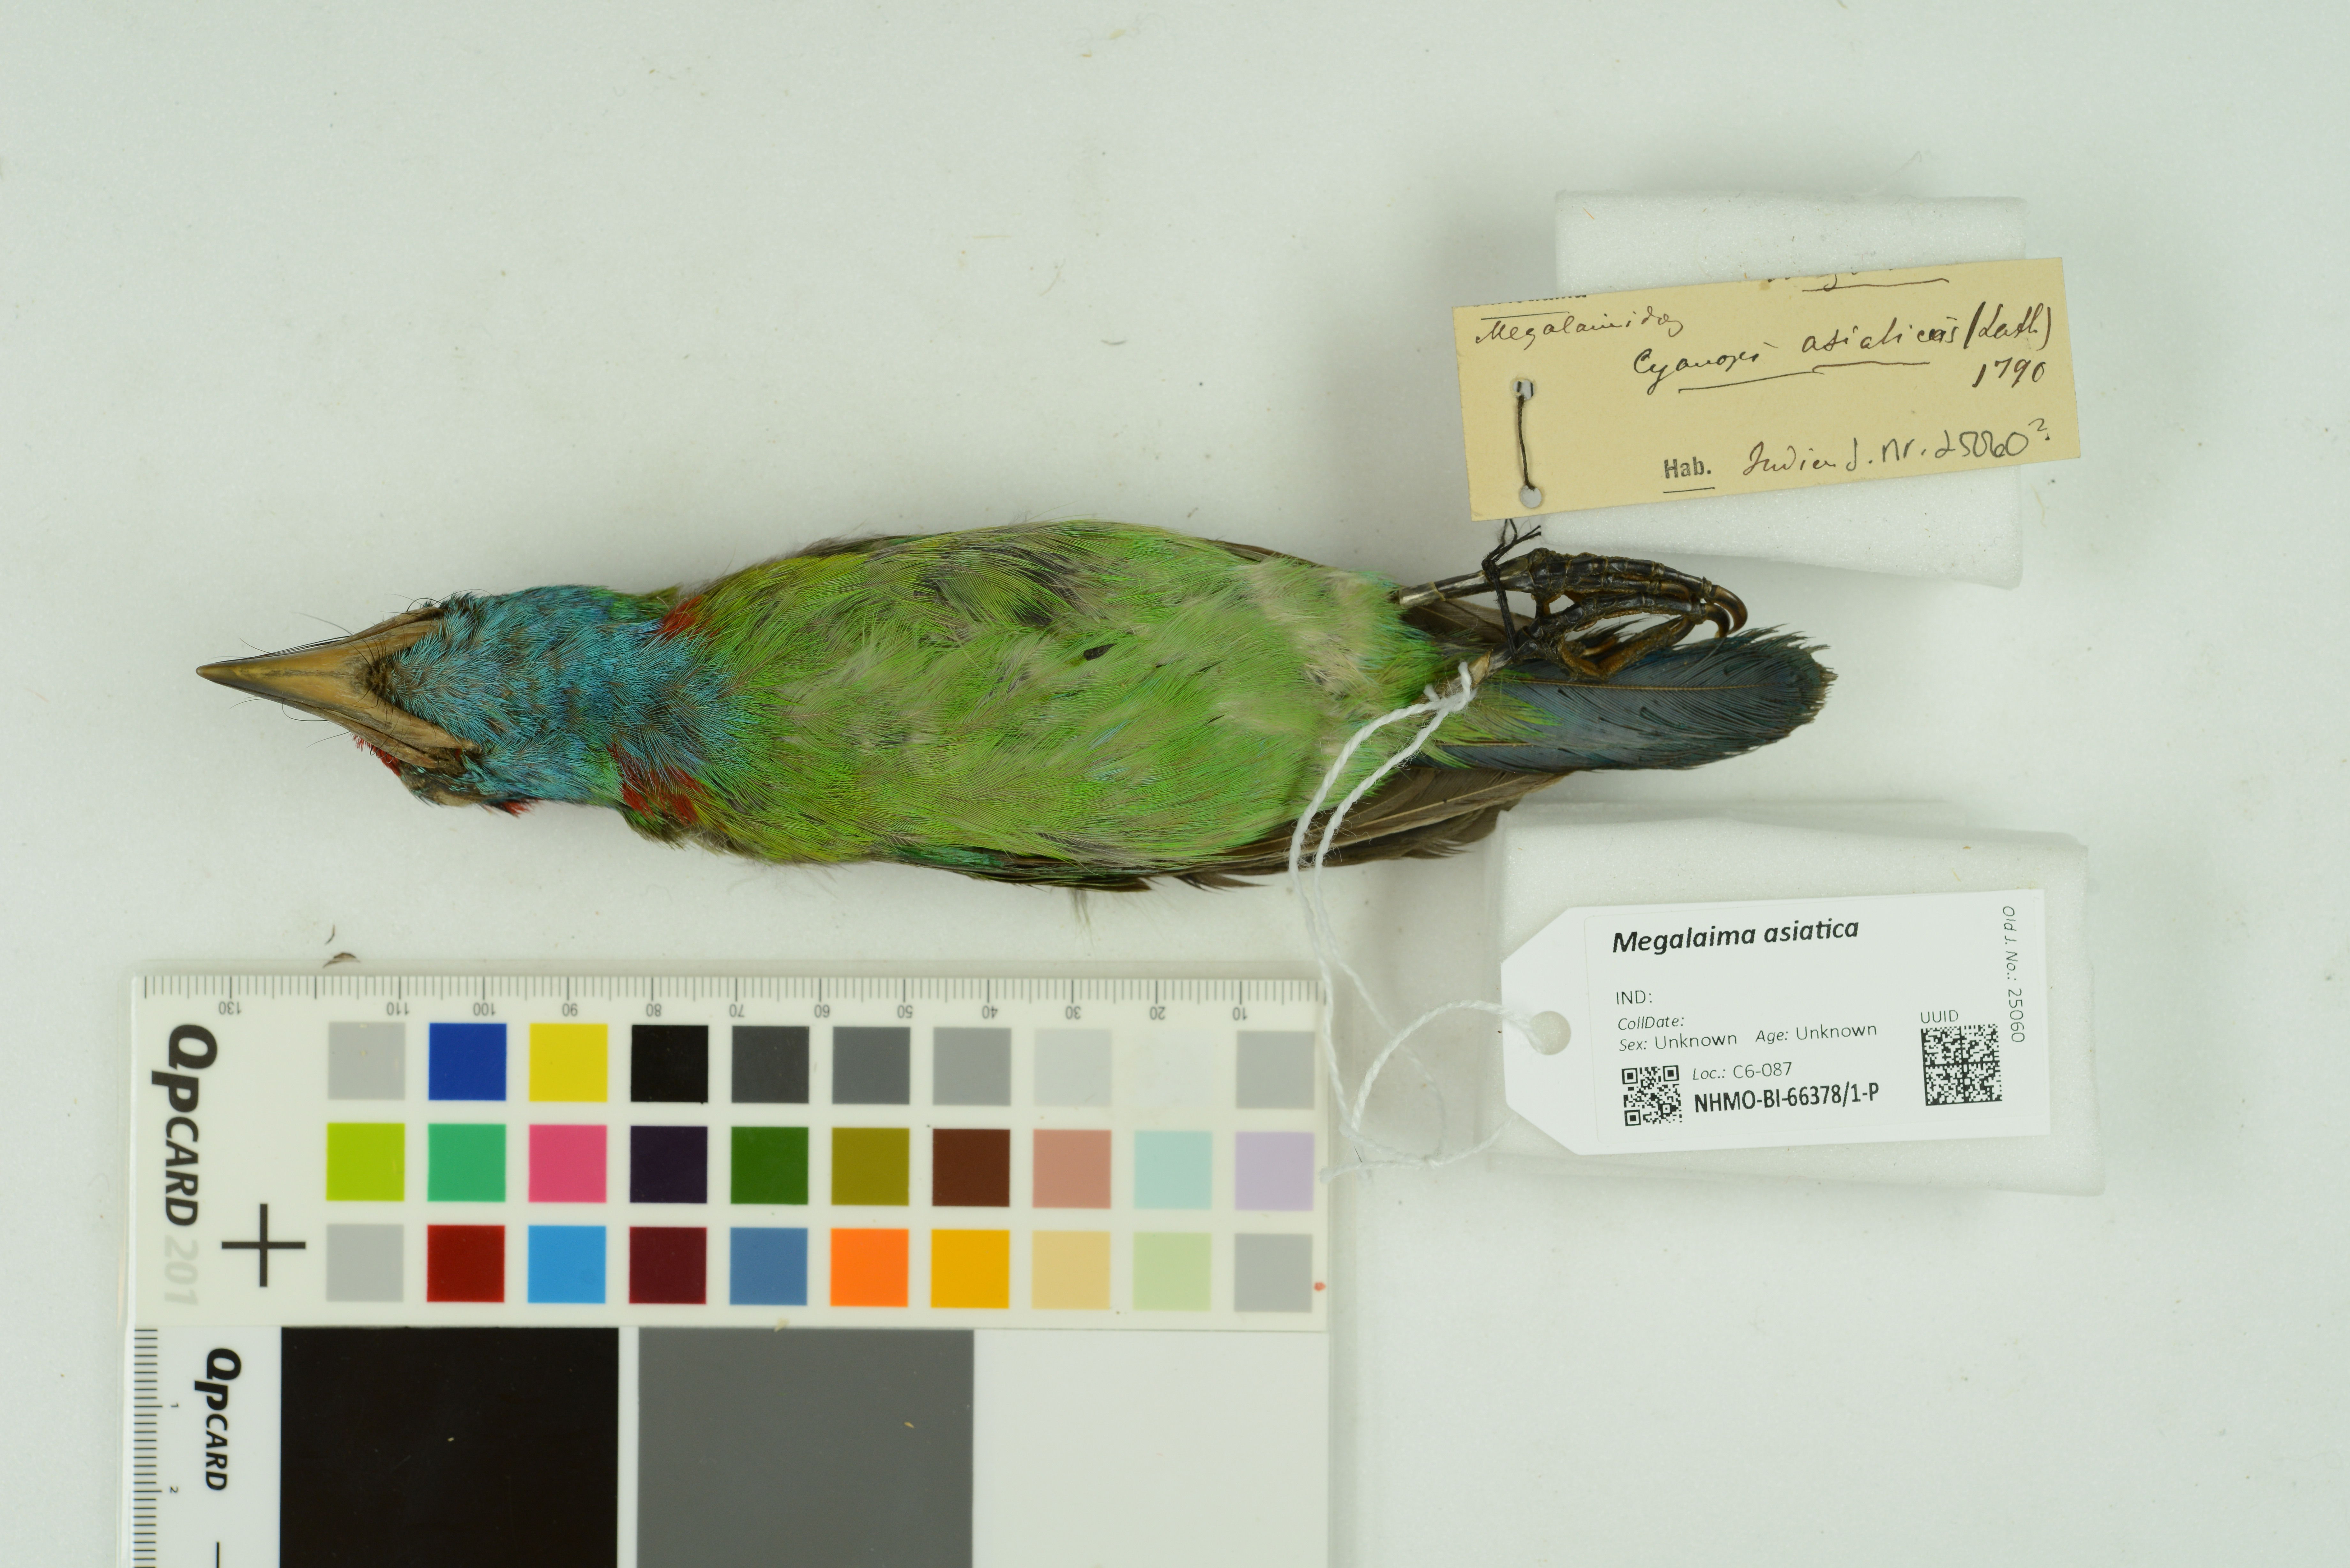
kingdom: Animalia
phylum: Chordata
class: Aves
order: Piciformes
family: Megalaimidae
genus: Psilopogon
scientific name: Psilopogon asiaticus
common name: Blue-throated barbet
